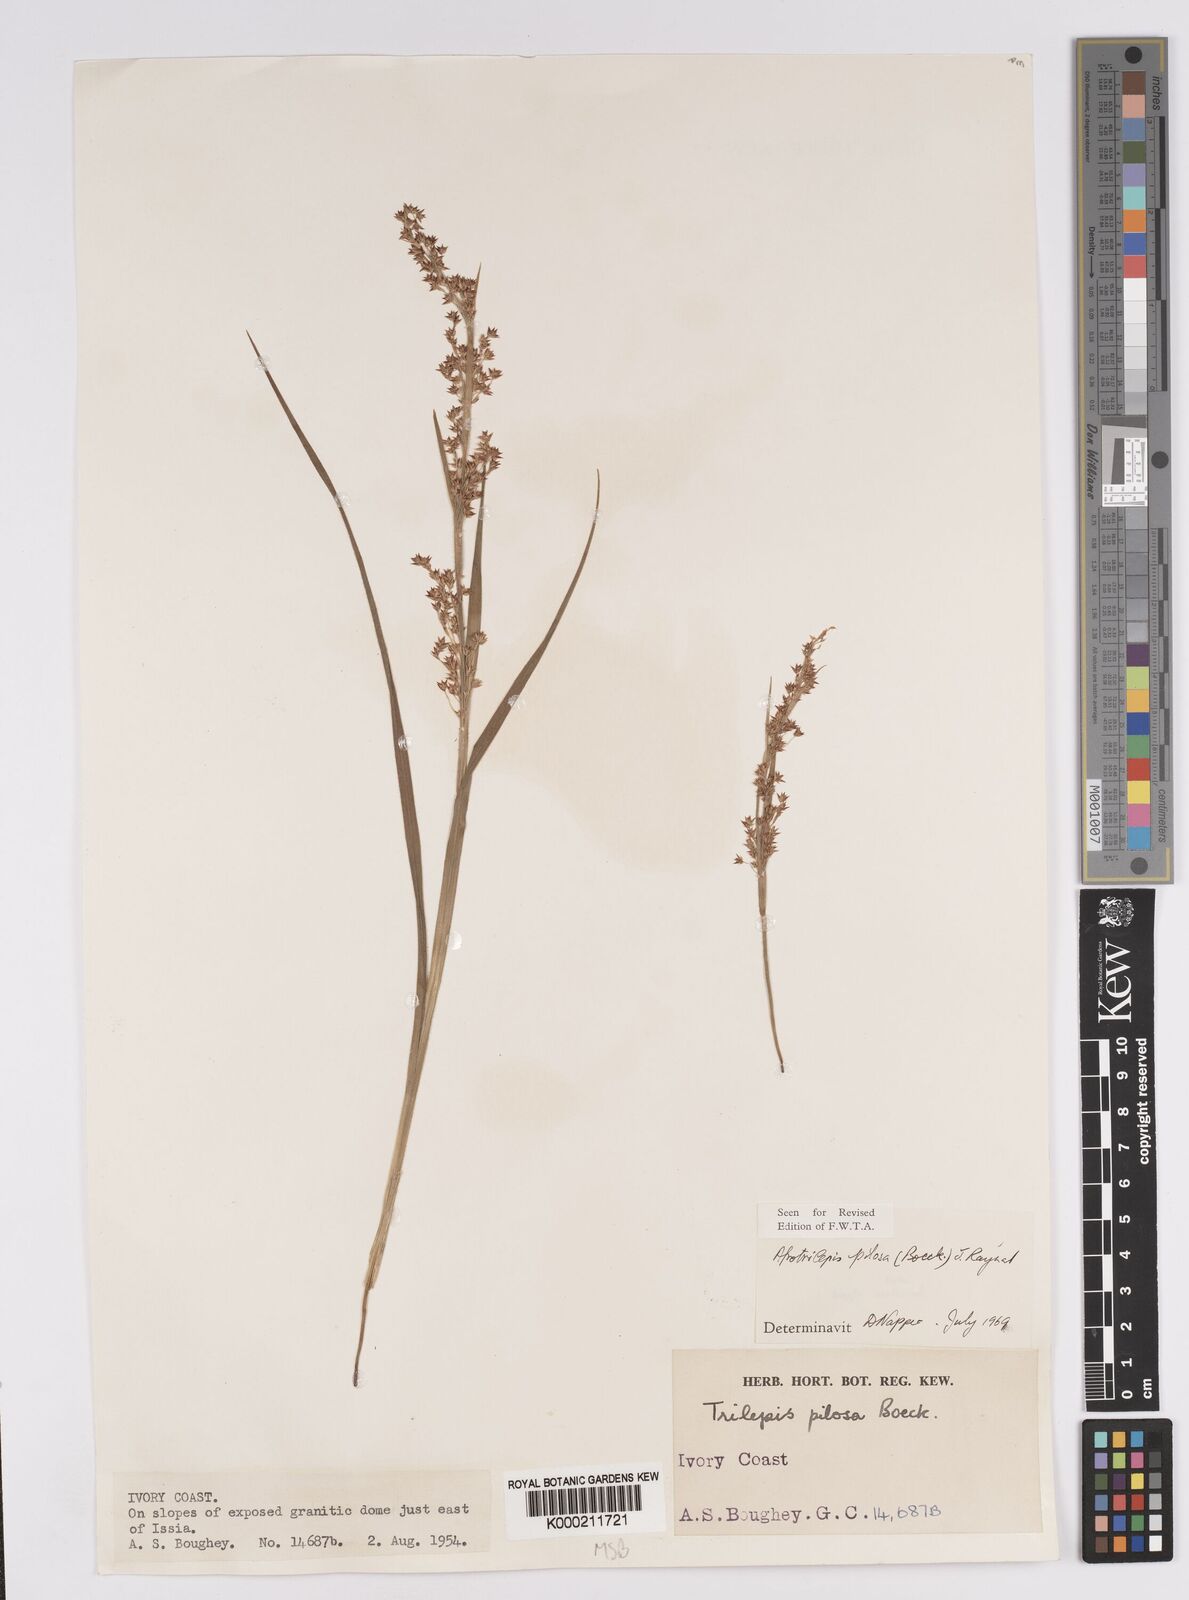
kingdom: Plantae
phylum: Tracheophyta
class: Liliopsida
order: Poales
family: Cyperaceae
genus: Afrotrilepis
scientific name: Afrotrilepis pilosa
